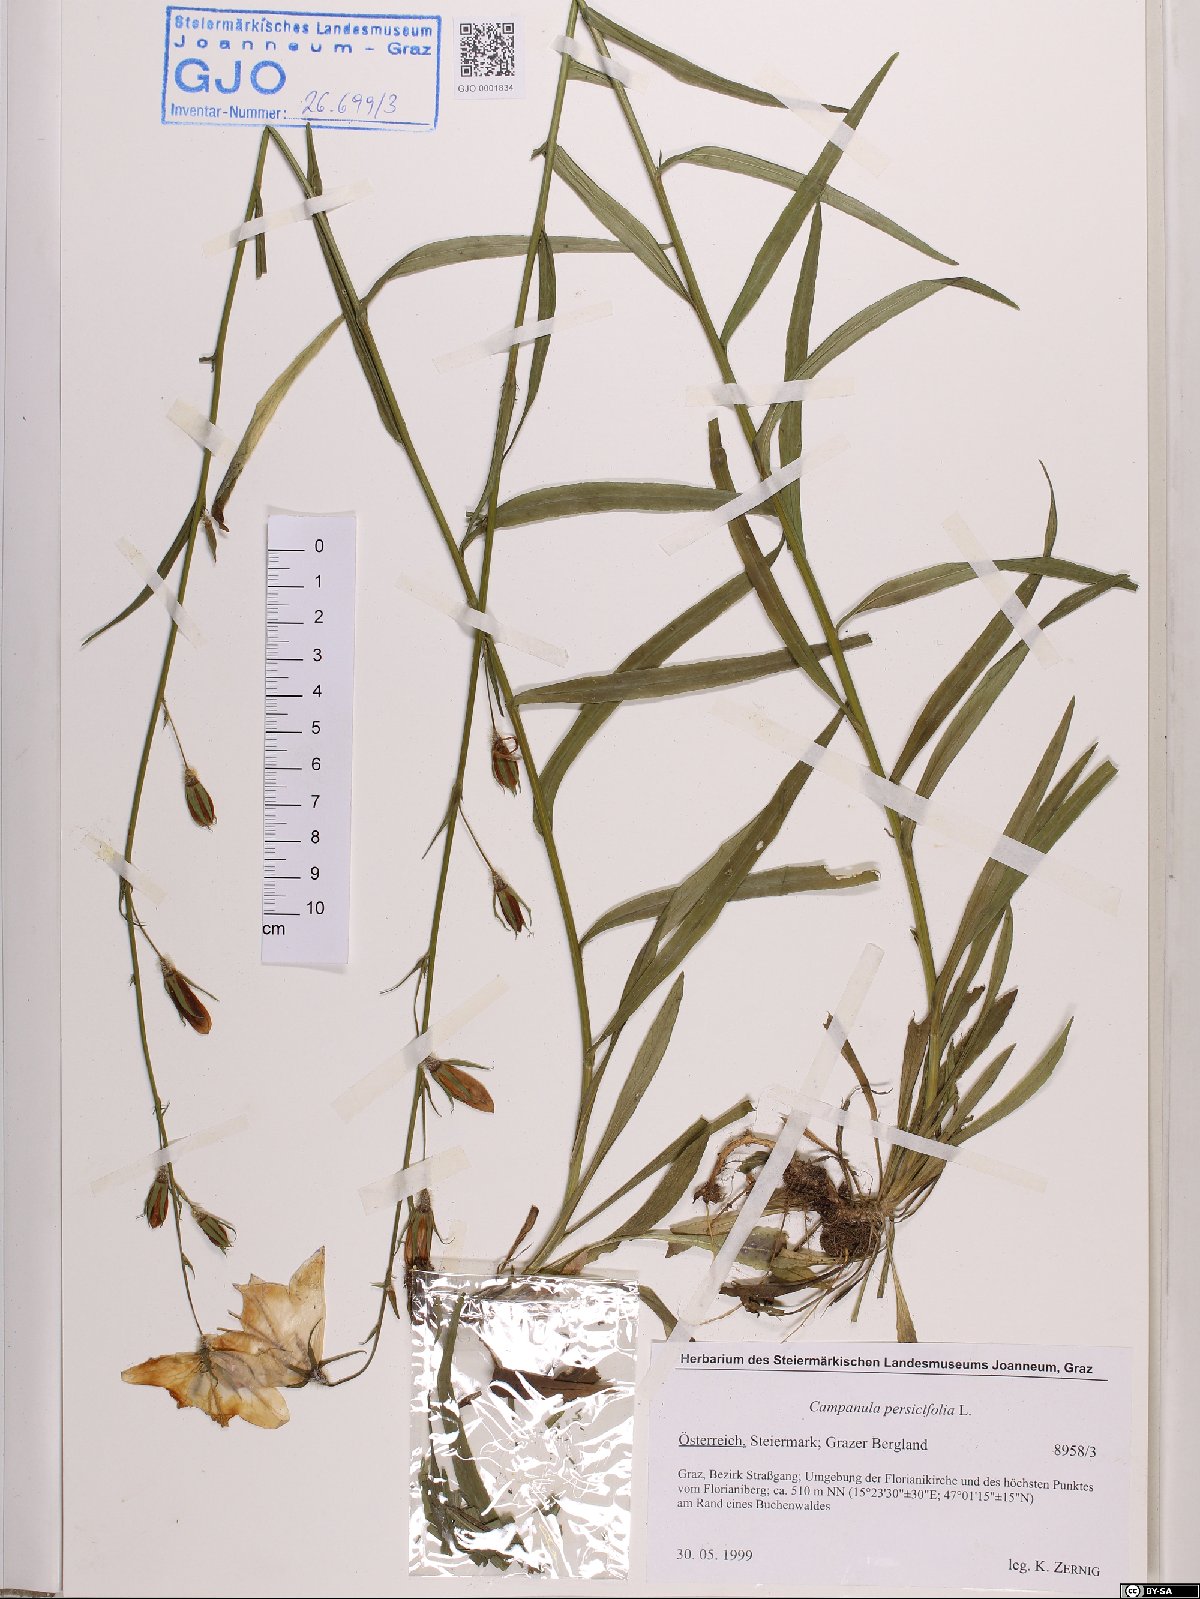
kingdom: Plantae
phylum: Tracheophyta
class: Magnoliopsida
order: Asterales
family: Campanulaceae
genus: Campanula
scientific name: Campanula persicifolia
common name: Peach-leaved bellflower
